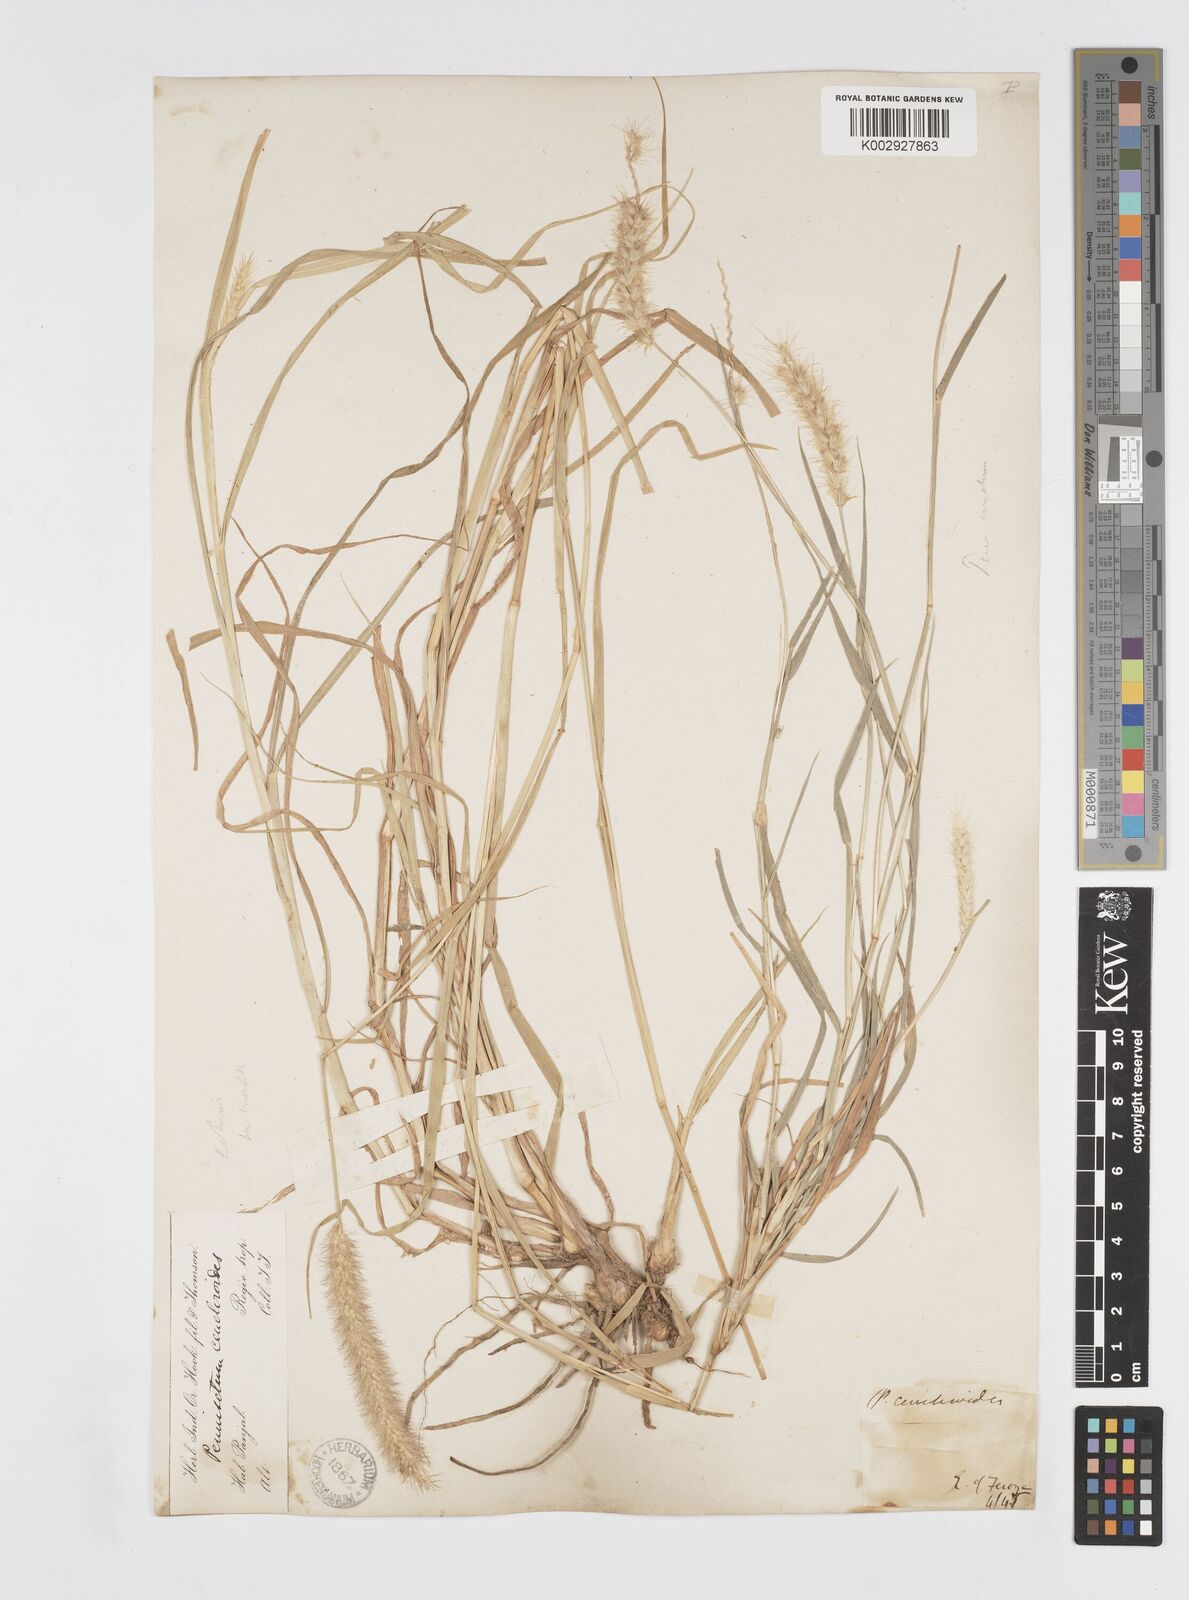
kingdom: Plantae
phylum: Tracheophyta
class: Liliopsida
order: Poales
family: Poaceae
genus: Cenchrus
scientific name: Cenchrus ciliaris
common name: Buffelgrass
